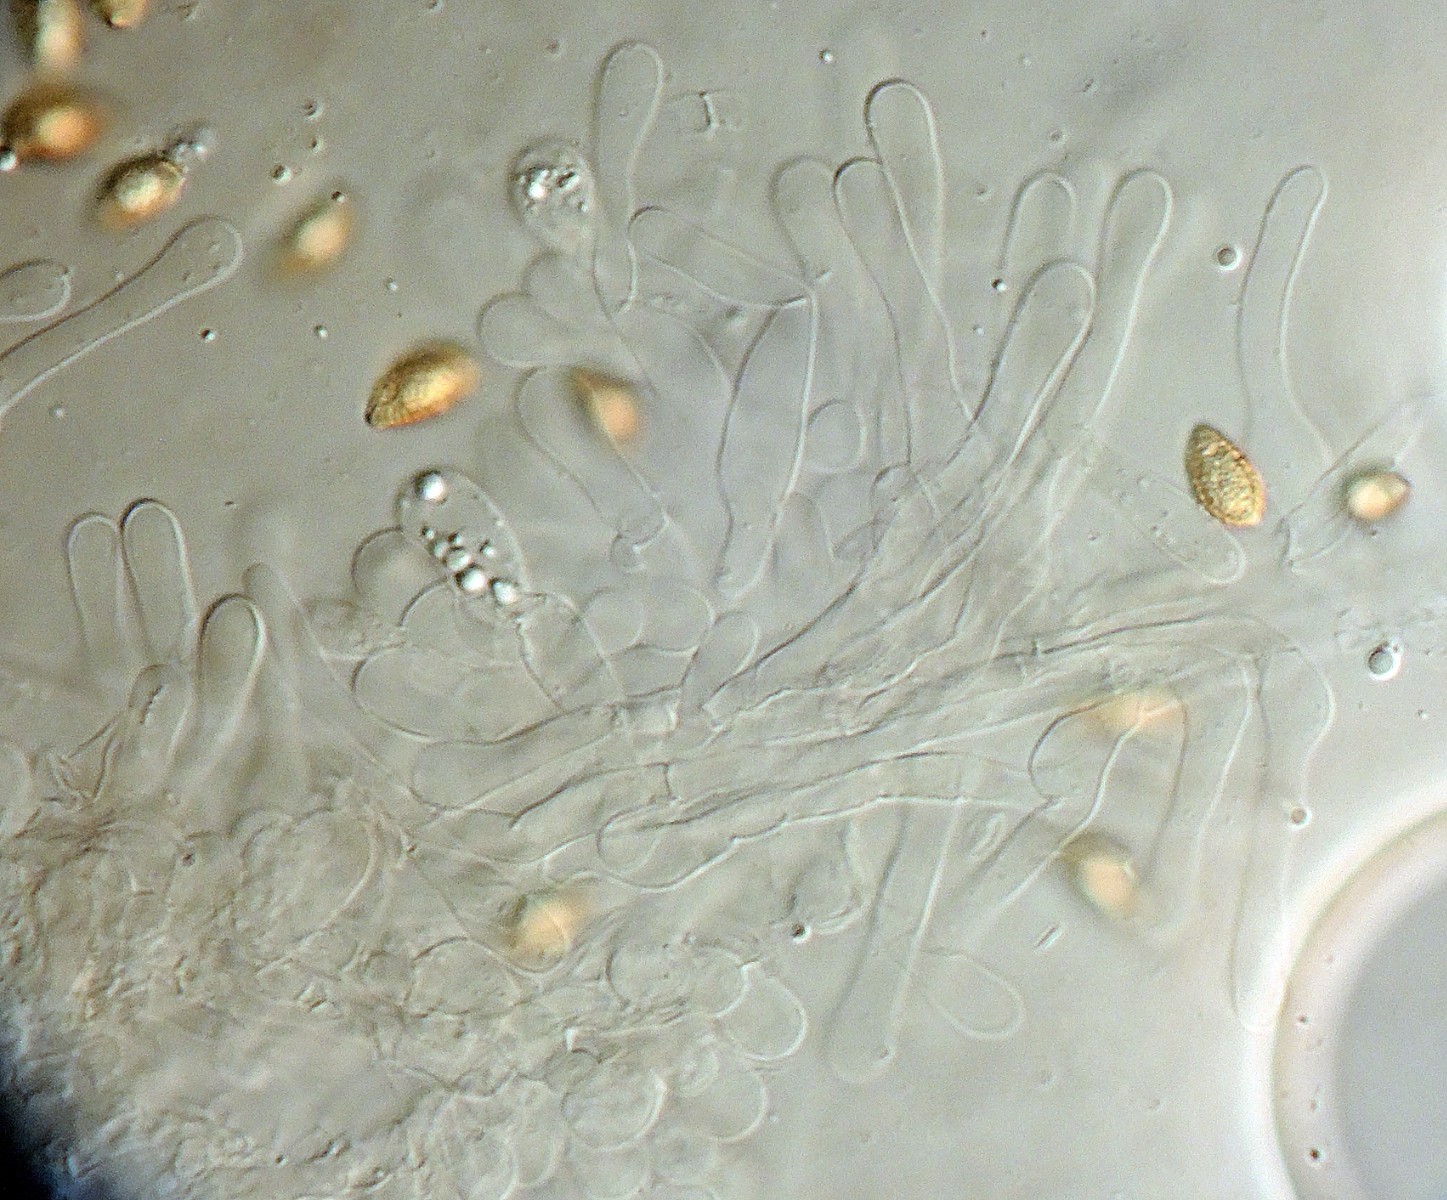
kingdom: Fungi
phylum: Basidiomycota
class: Agaricomycetes
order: Agaricales
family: Hymenogastraceae
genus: Hebeloma
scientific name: Hebeloma album
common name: skør tåreblad
